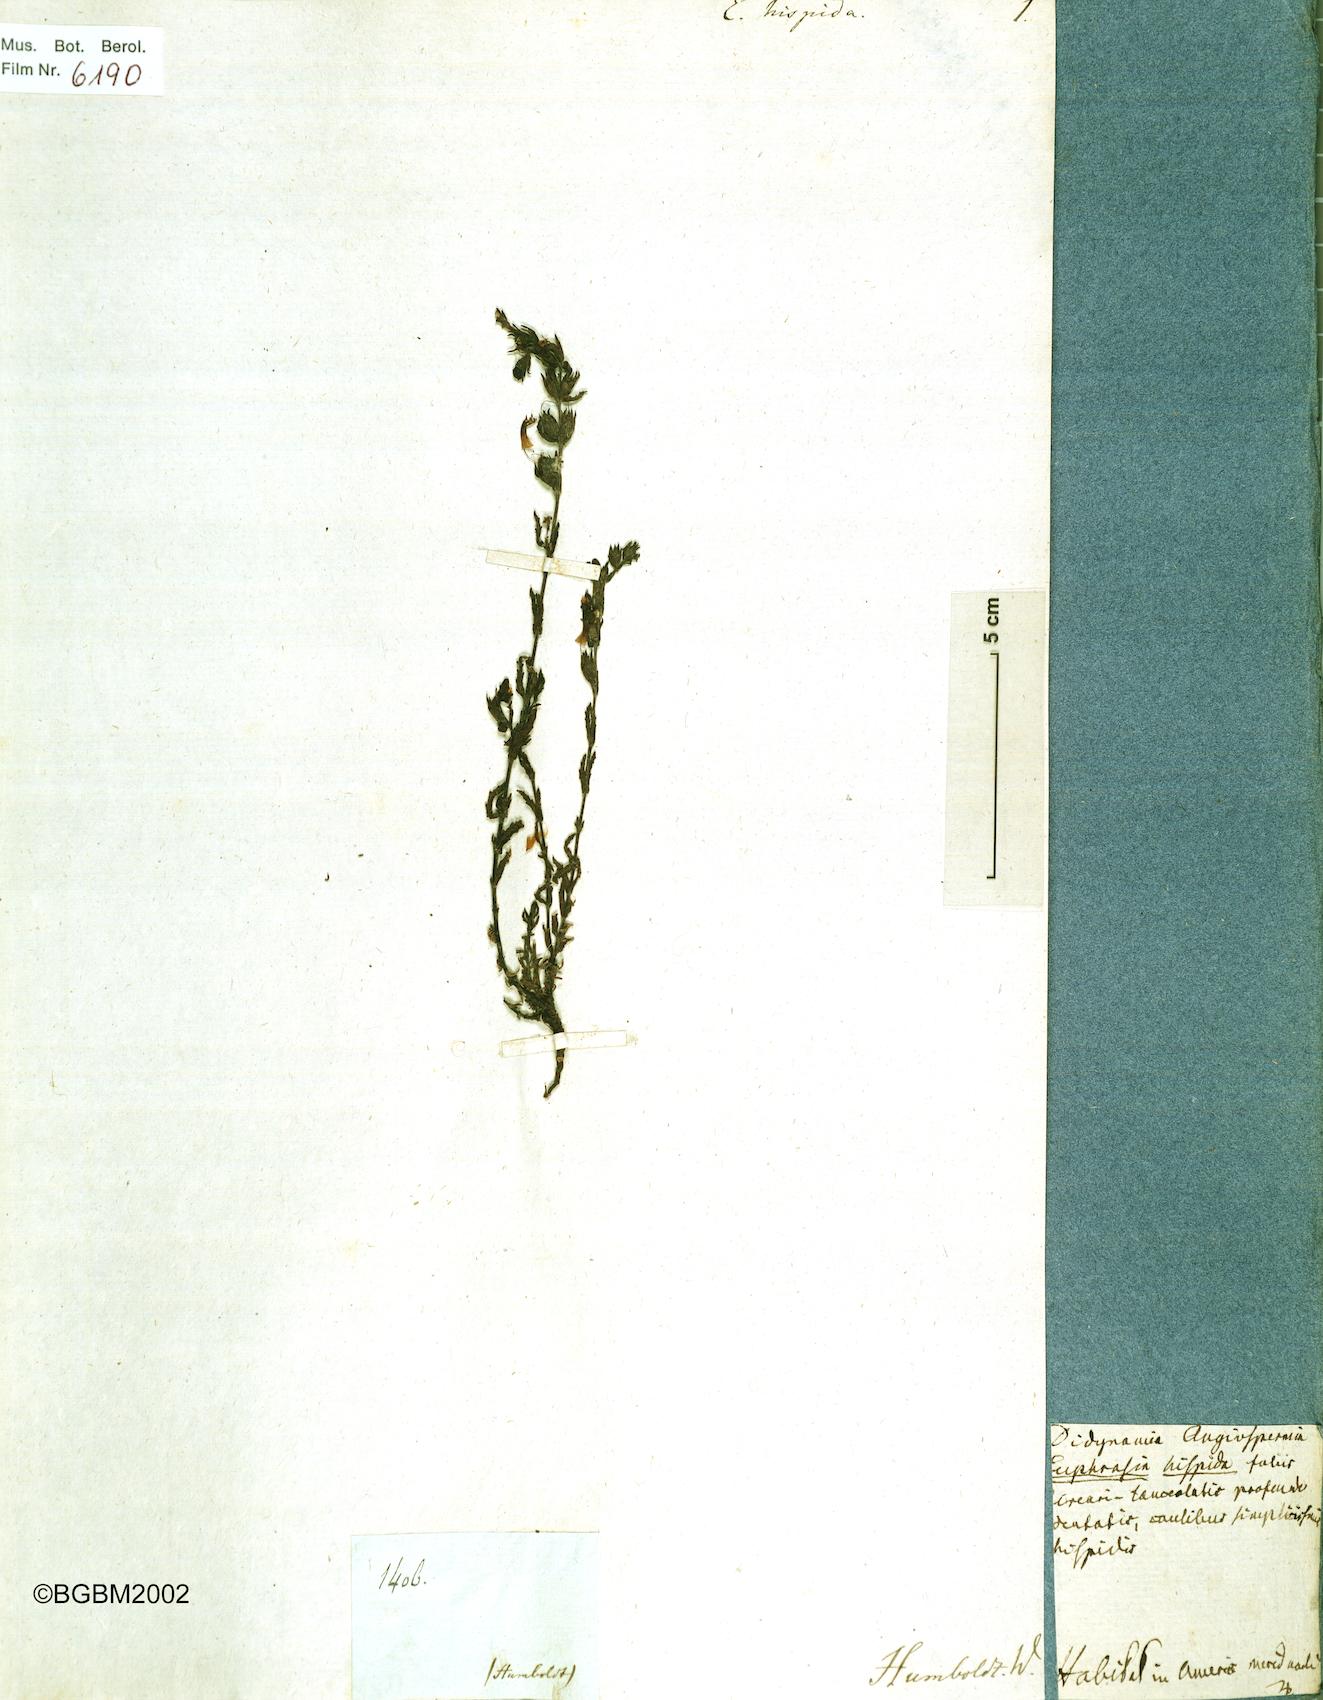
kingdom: Plantae
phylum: Tracheophyta
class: Magnoliopsida
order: Lamiales
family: Orobanchaceae
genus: Neobartsia
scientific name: Neobartsia melampyroides
